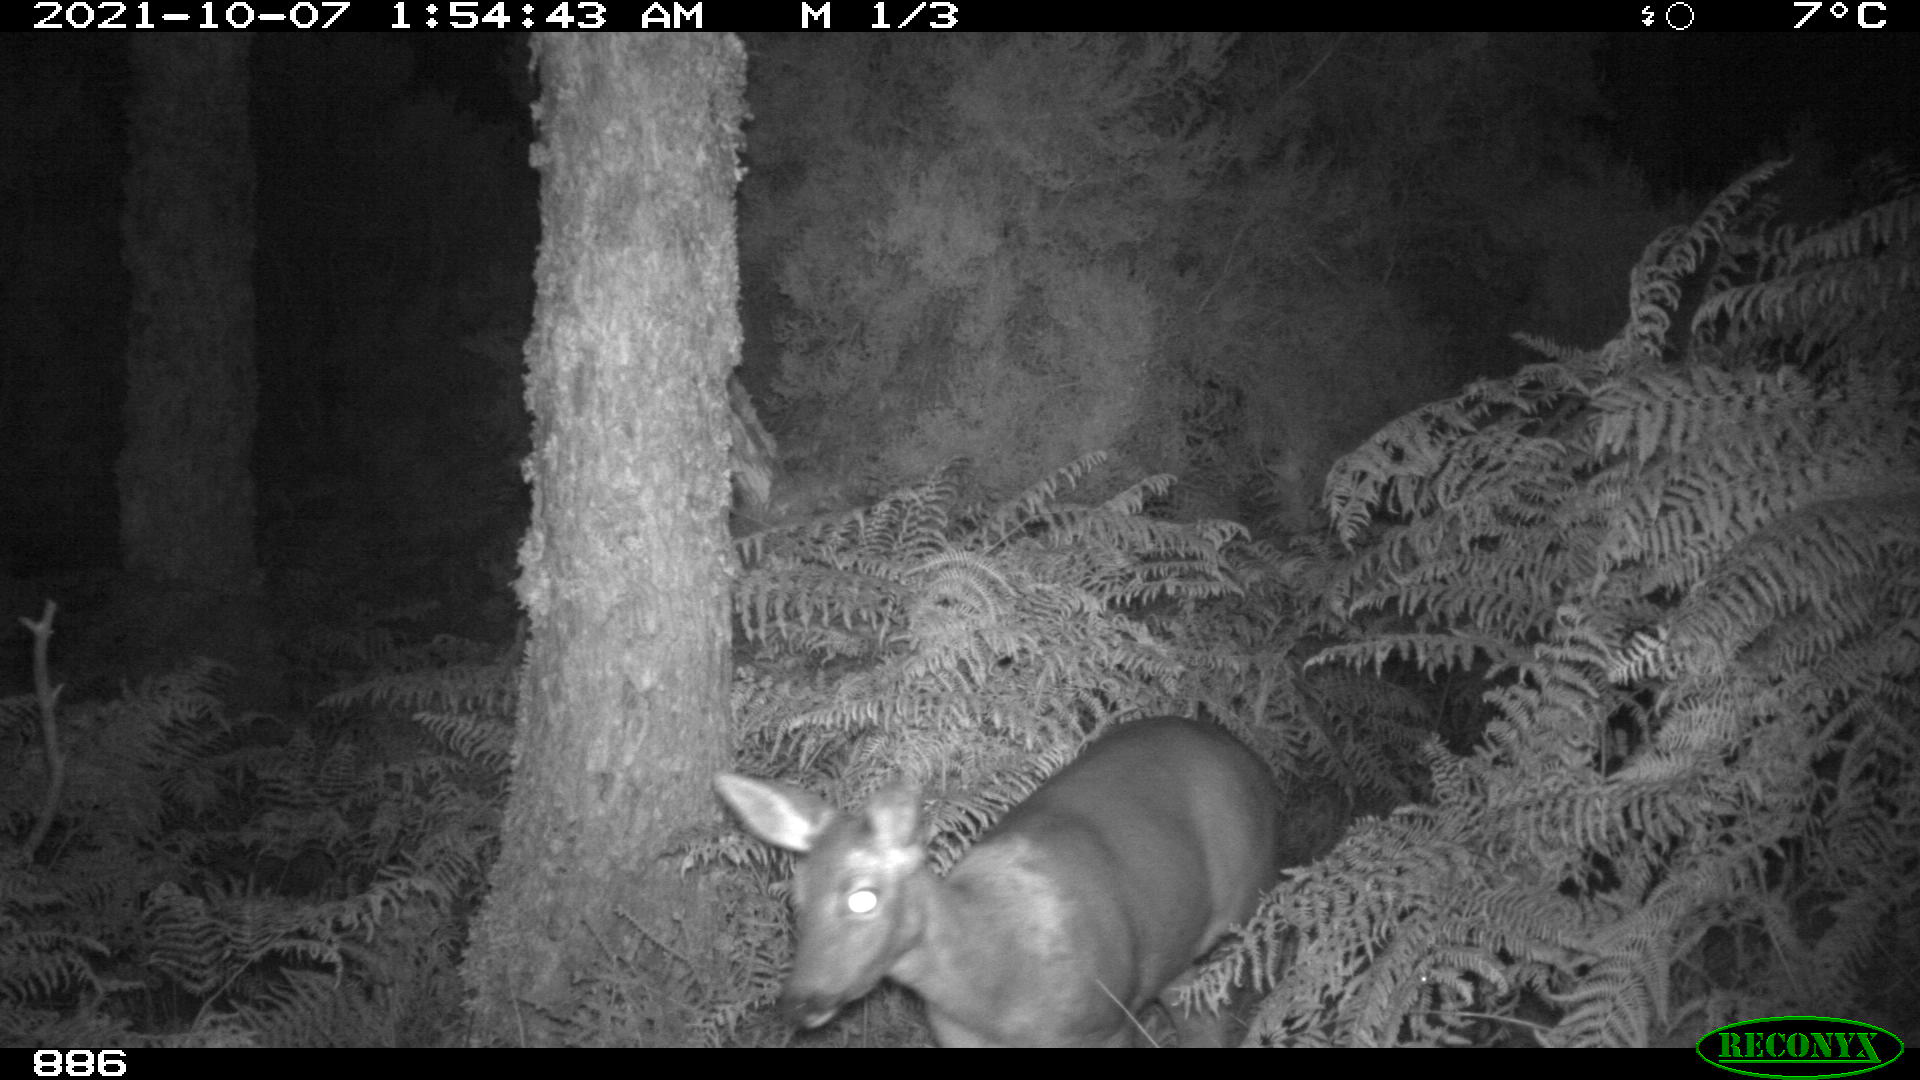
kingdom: Animalia
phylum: Chordata
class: Mammalia
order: Artiodactyla
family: Cervidae
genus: Capreolus
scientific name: Capreolus capreolus
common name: Western roe deer
